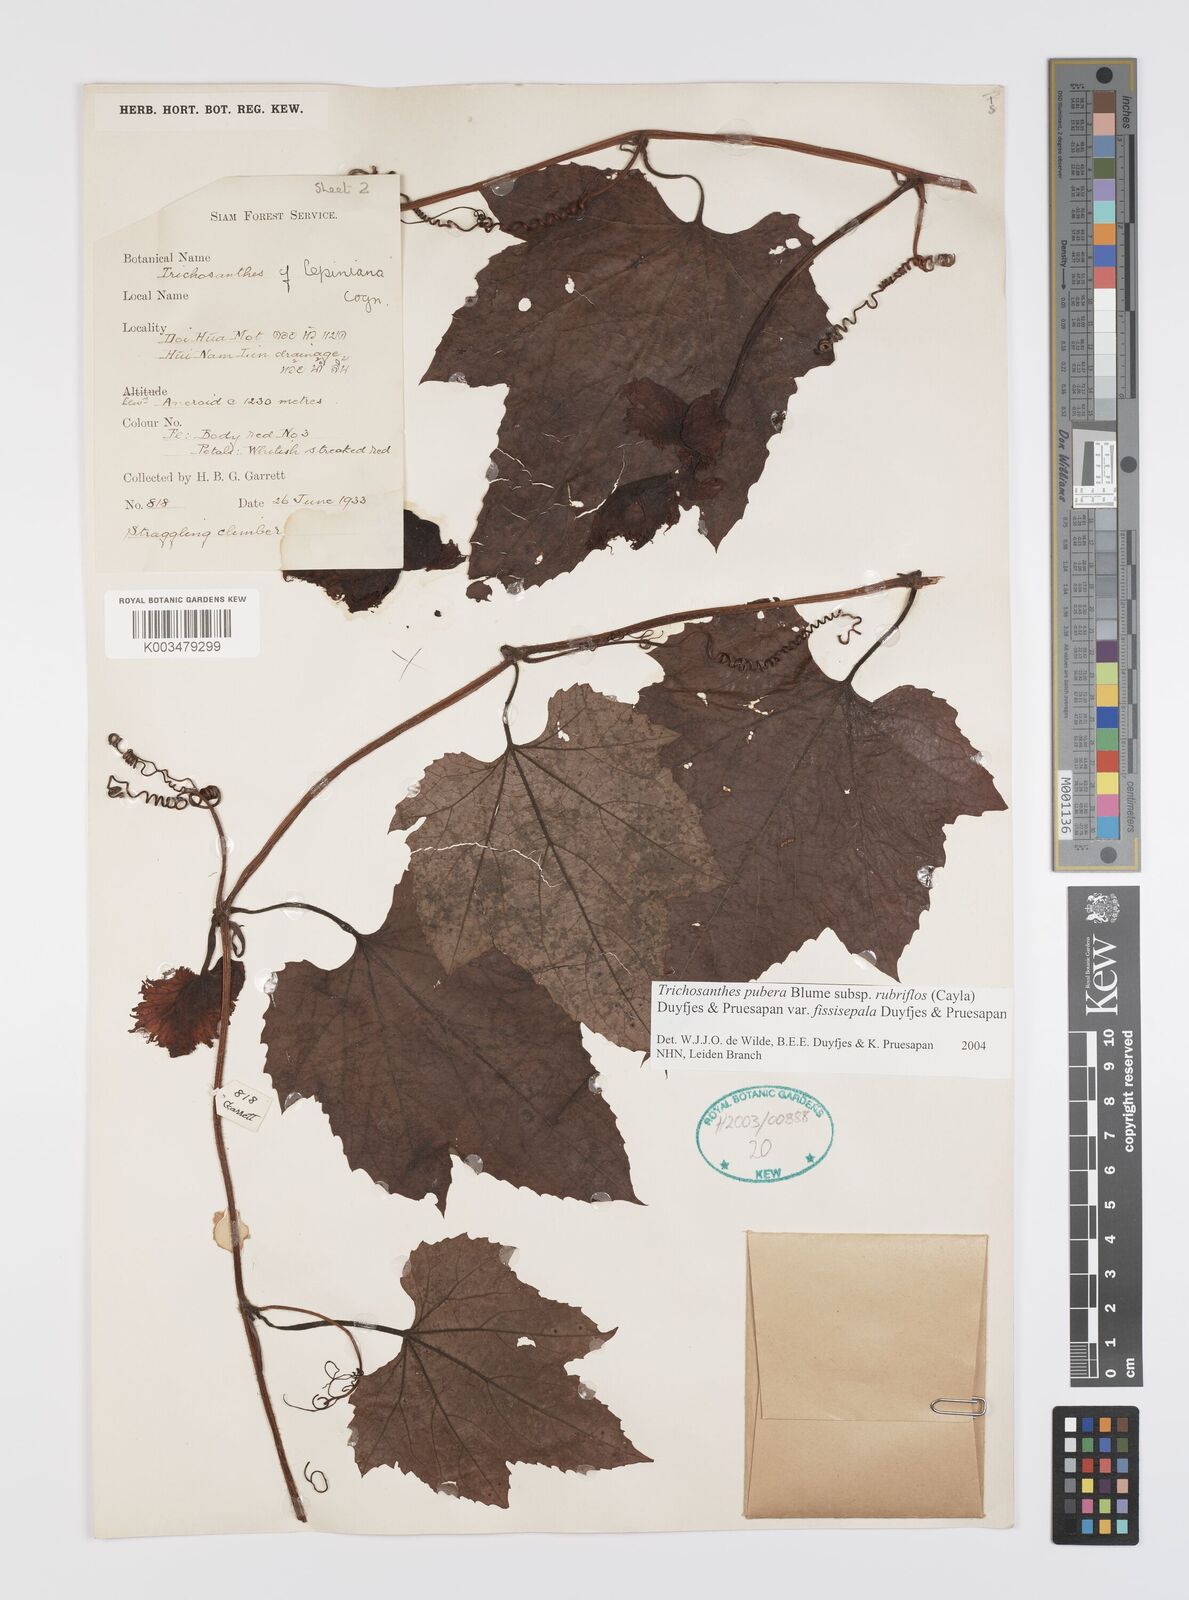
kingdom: Plantae
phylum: Tracheophyta
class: Magnoliopsida
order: Cucurbitales
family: Cucurbitaceae
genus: Trichosanthes
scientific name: Trichosanthes rubriflos
